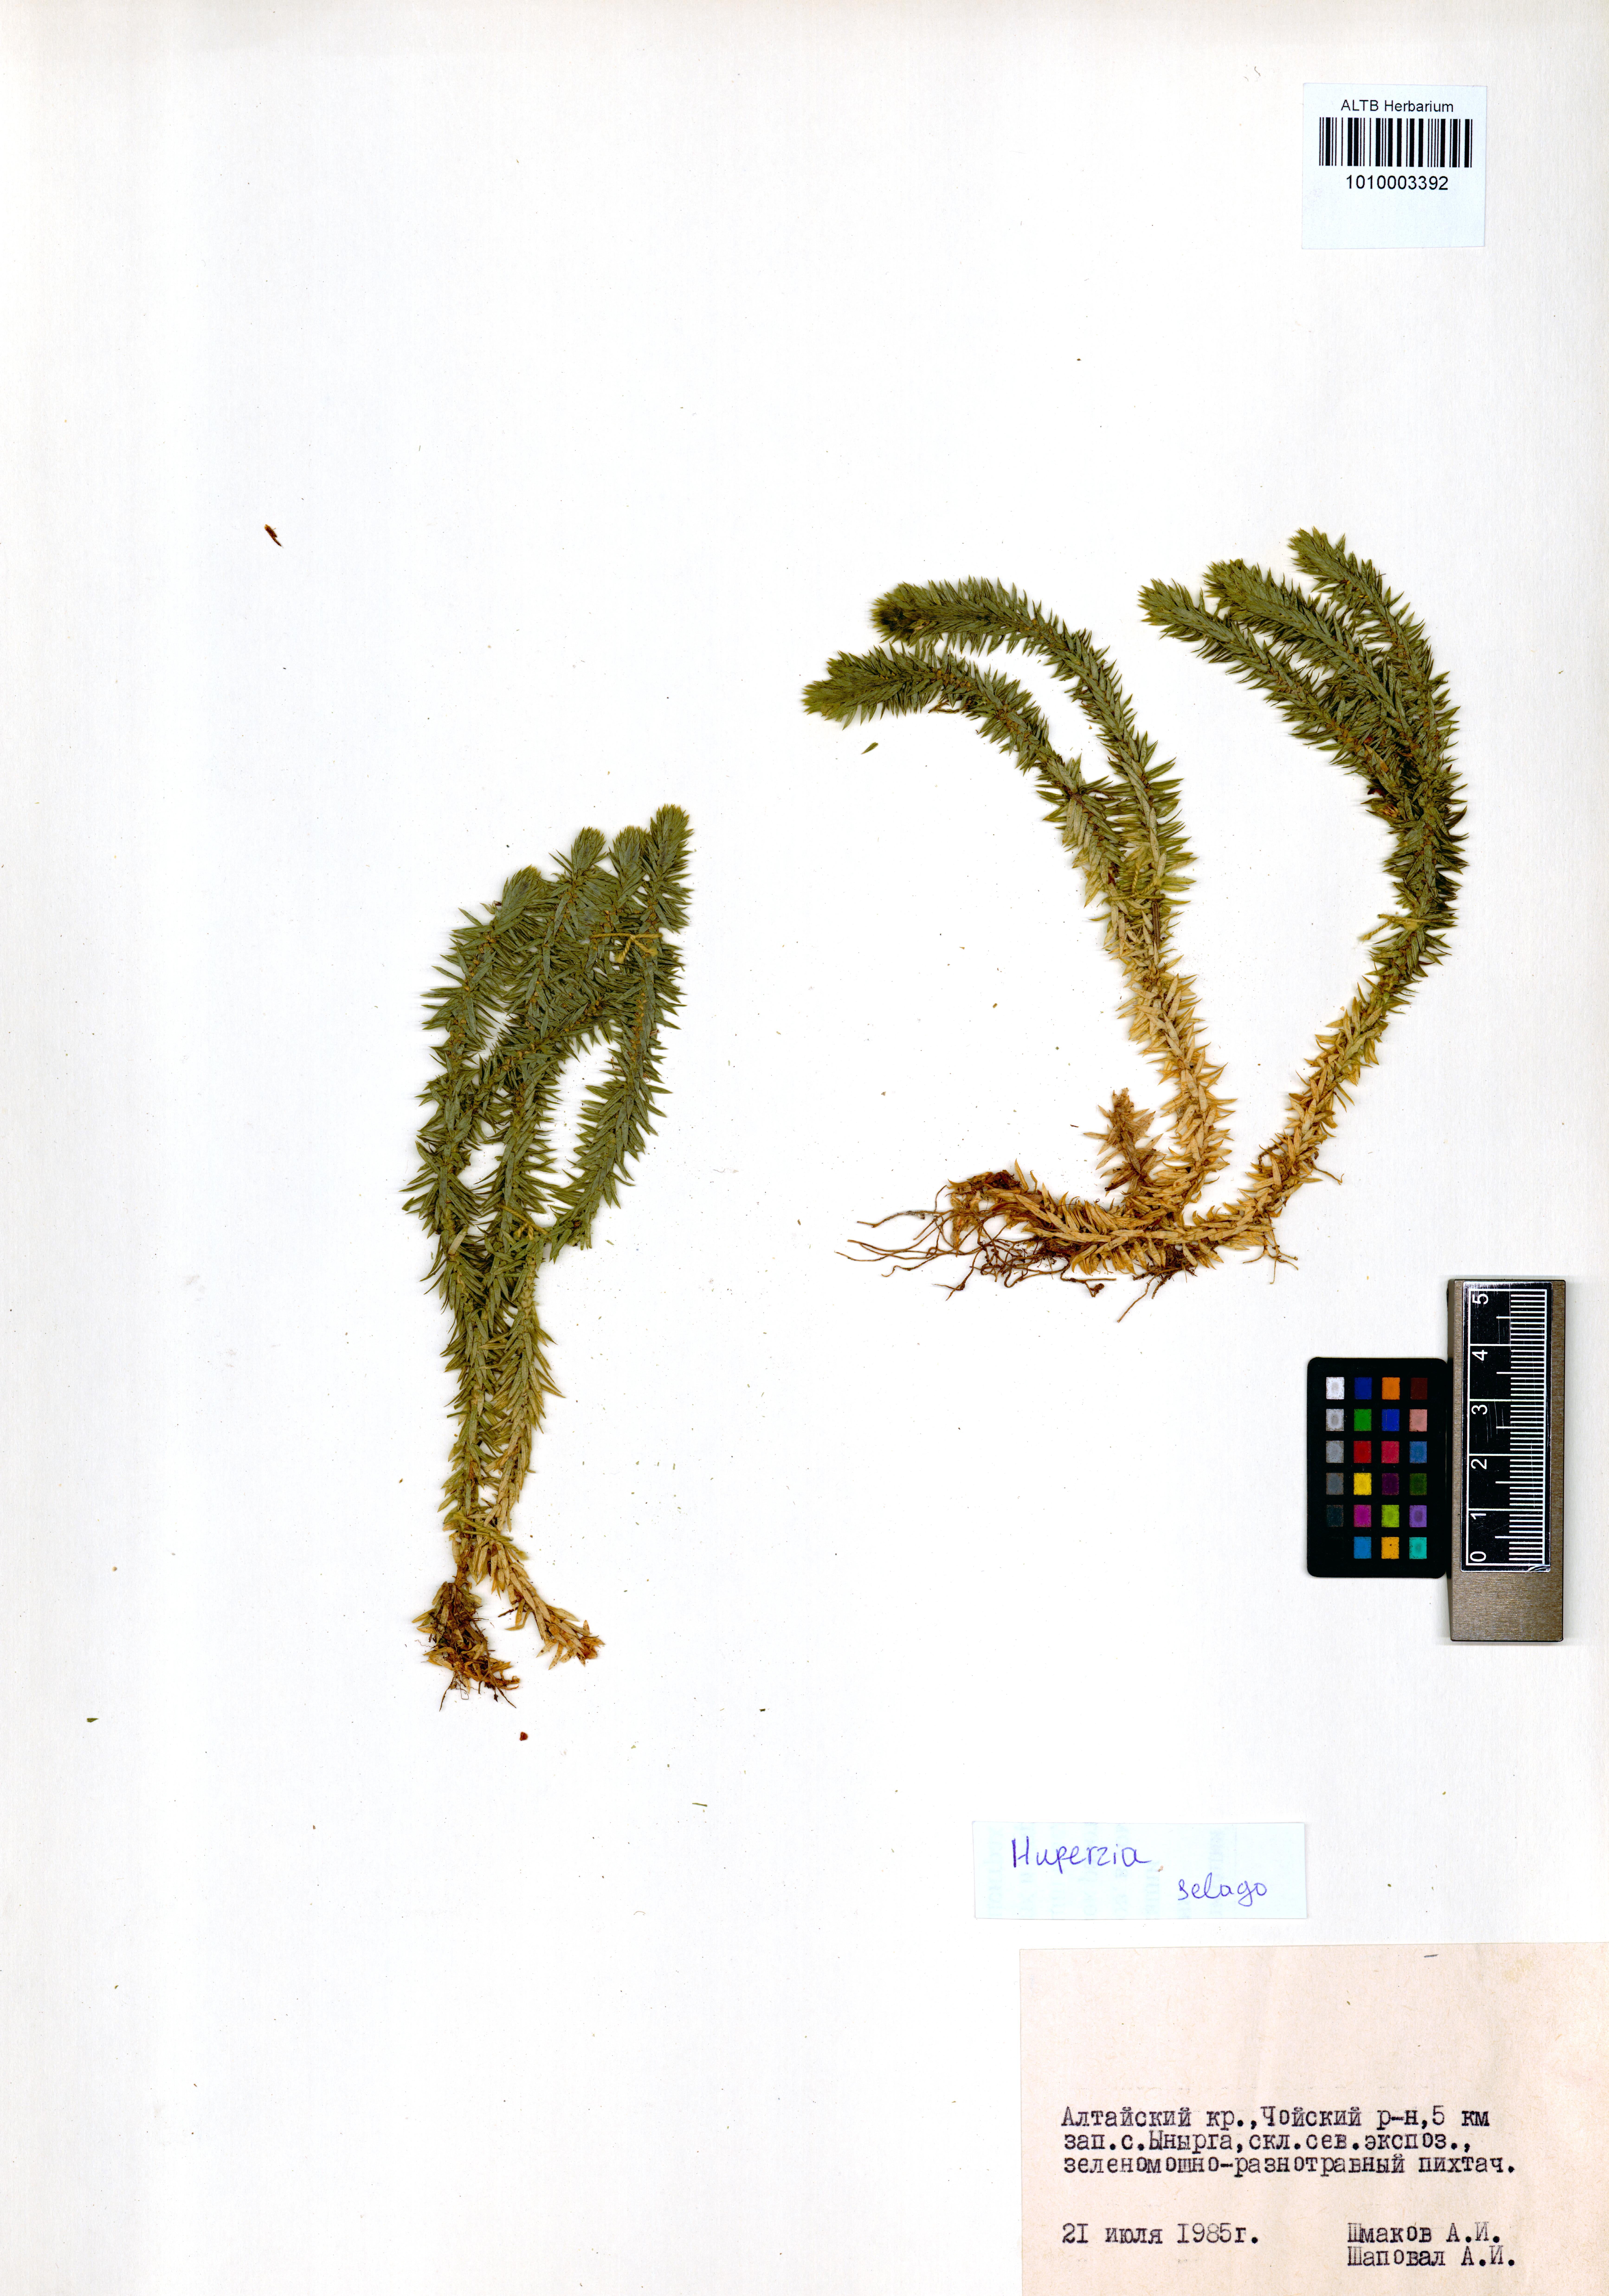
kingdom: Plantae
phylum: Tracheophyta
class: Lycopodiopsida
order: Lycopodiales
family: Lycopodiaceae
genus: Huperzia
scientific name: Huperzia selago
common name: Northern firmoss
